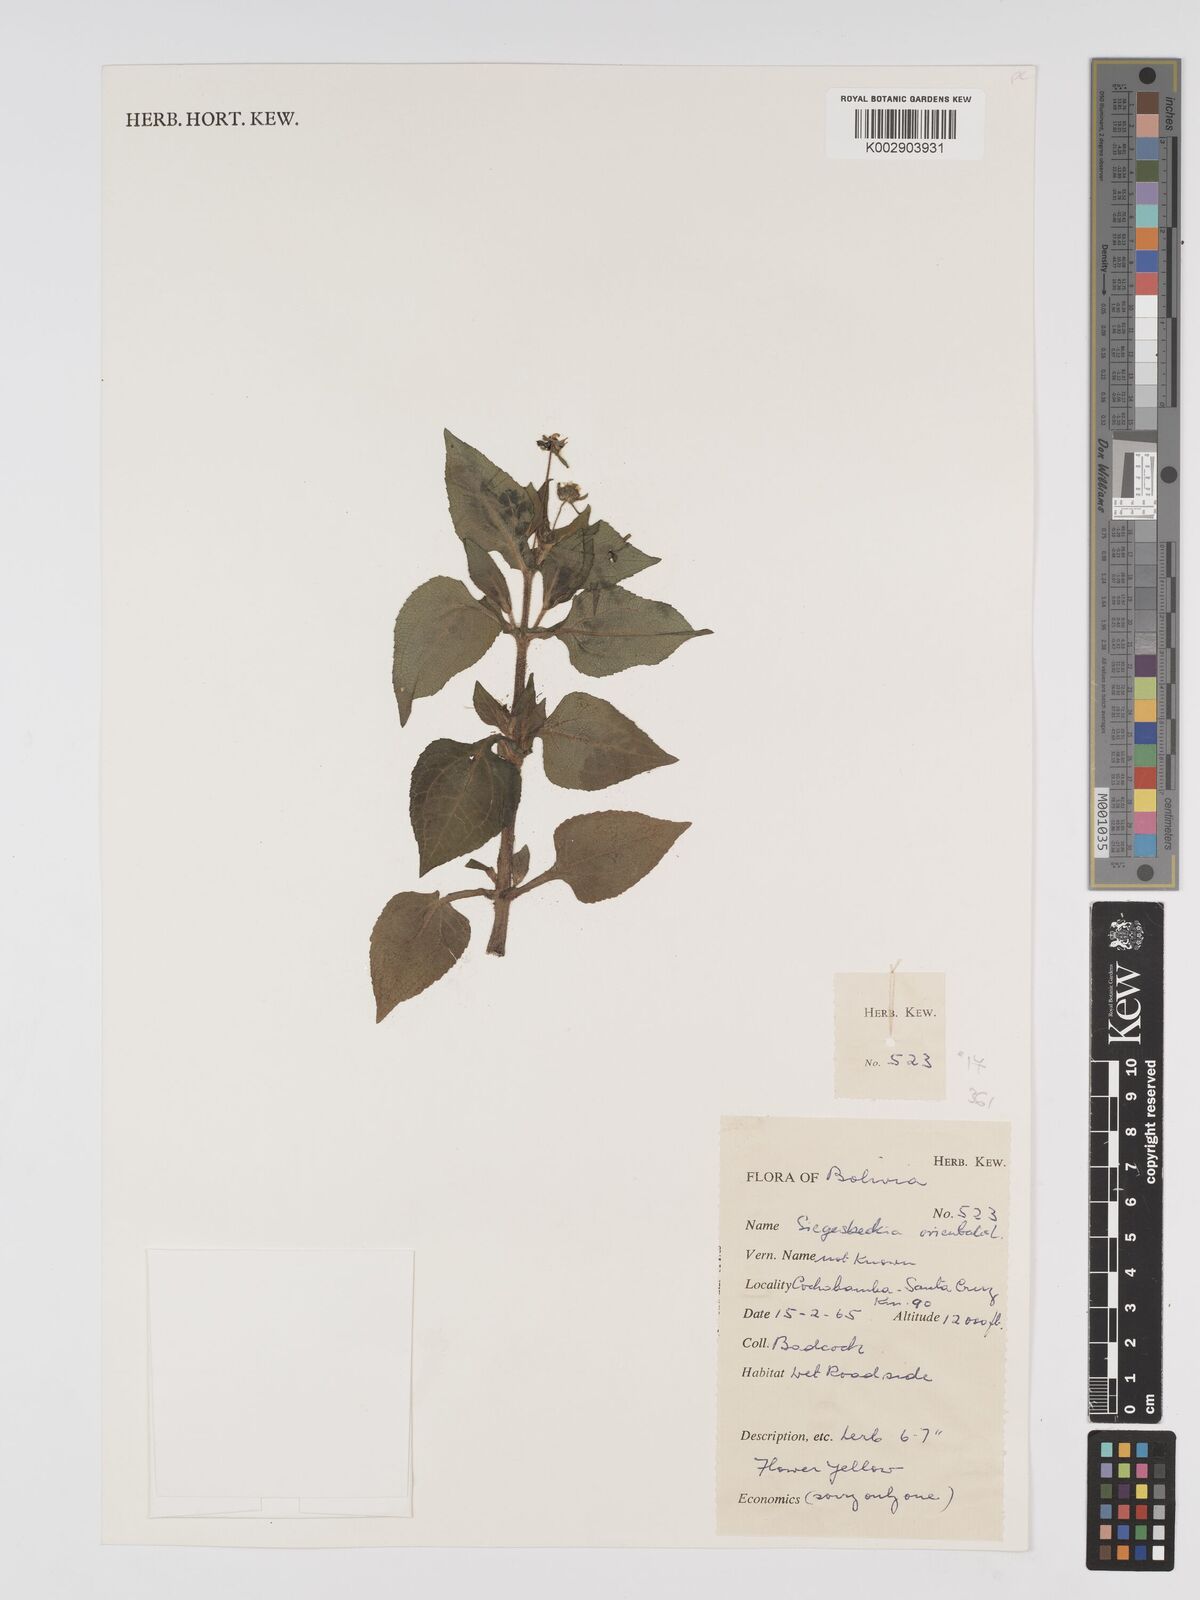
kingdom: Plantae
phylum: Tracheophyta
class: Magnoliopsida
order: Asterales
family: Asteraceae
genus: Sigesbeckia
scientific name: Sigesbeckia orientalis
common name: Eastern st paul's-wort
